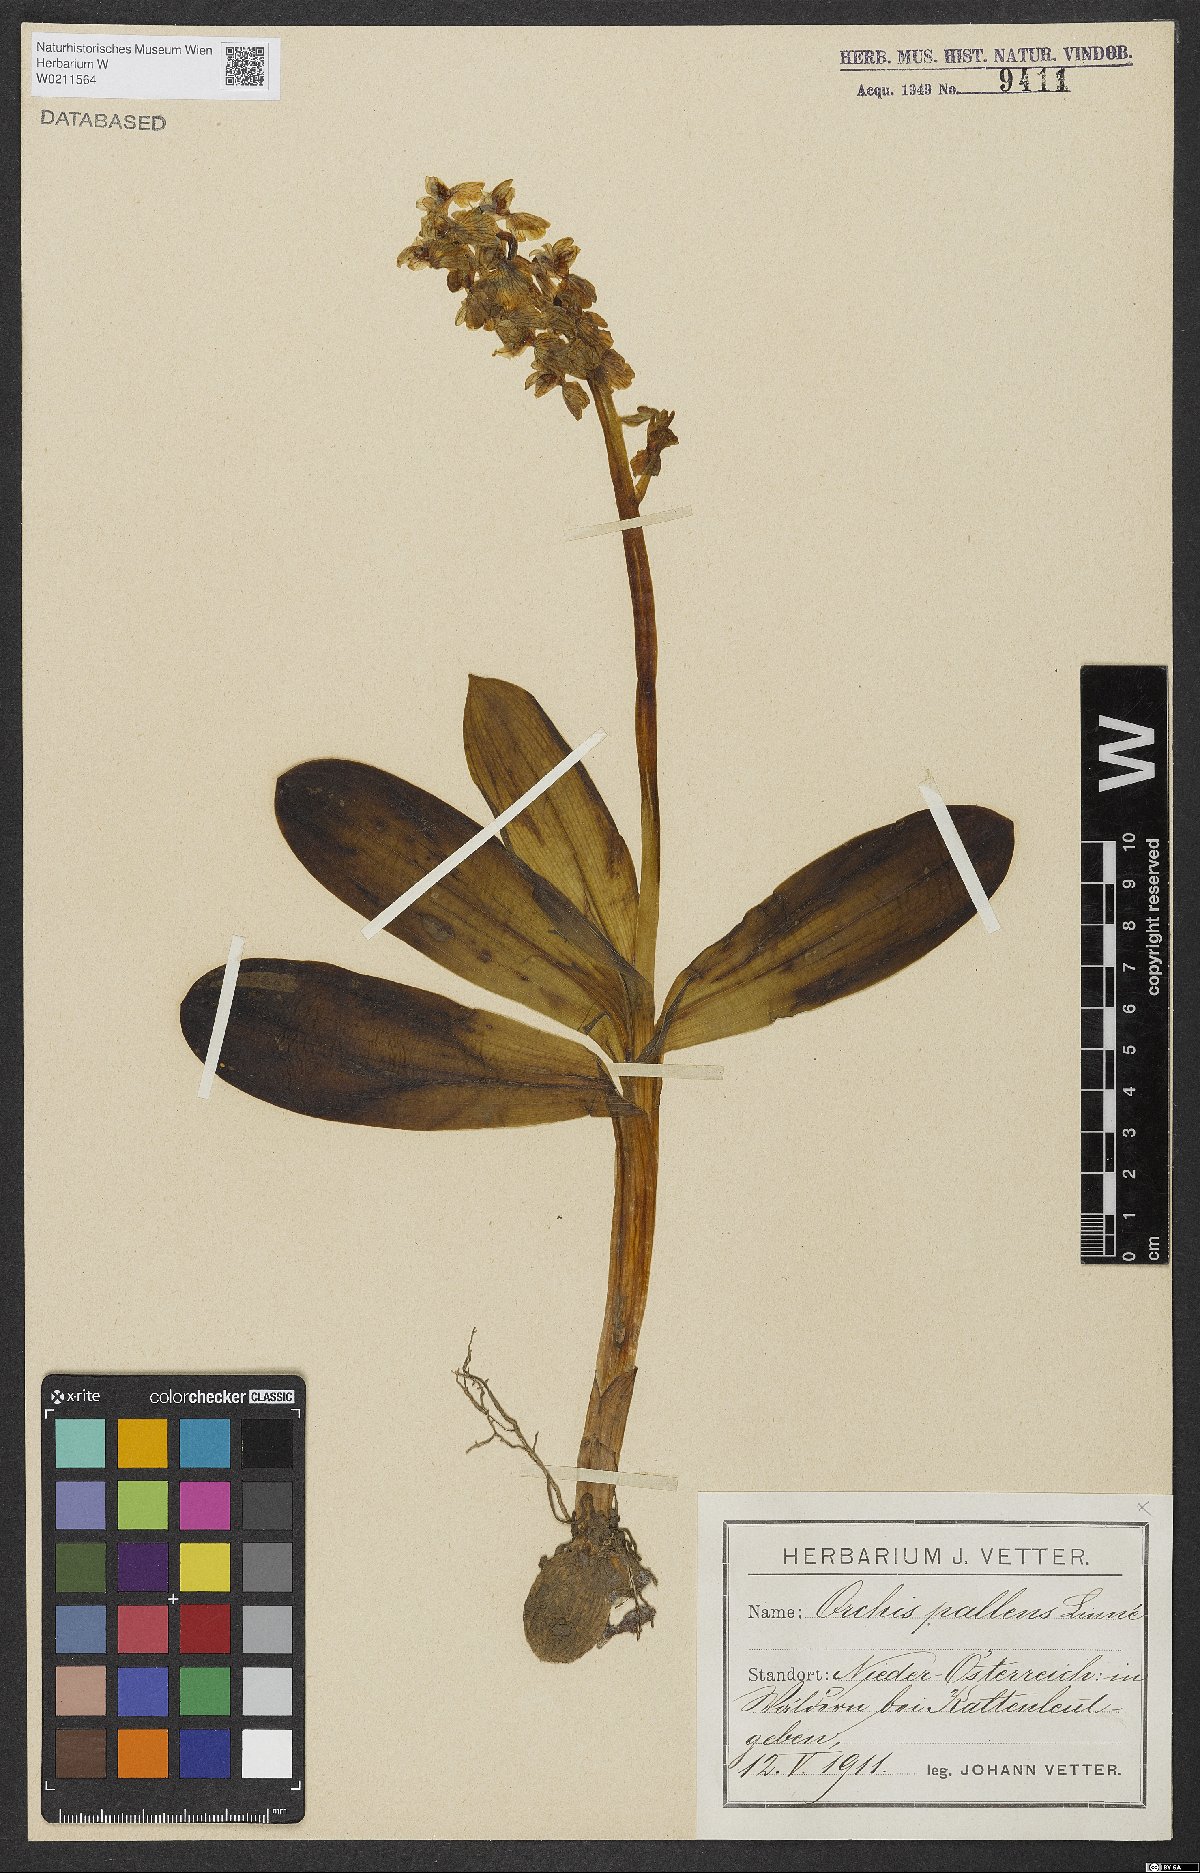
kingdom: Plantae
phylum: Tracheophyta
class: Liliopsida
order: Asparagales
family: Orchidaceae
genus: Orchis
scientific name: Orchis pallens
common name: Pale-flowered orchid
